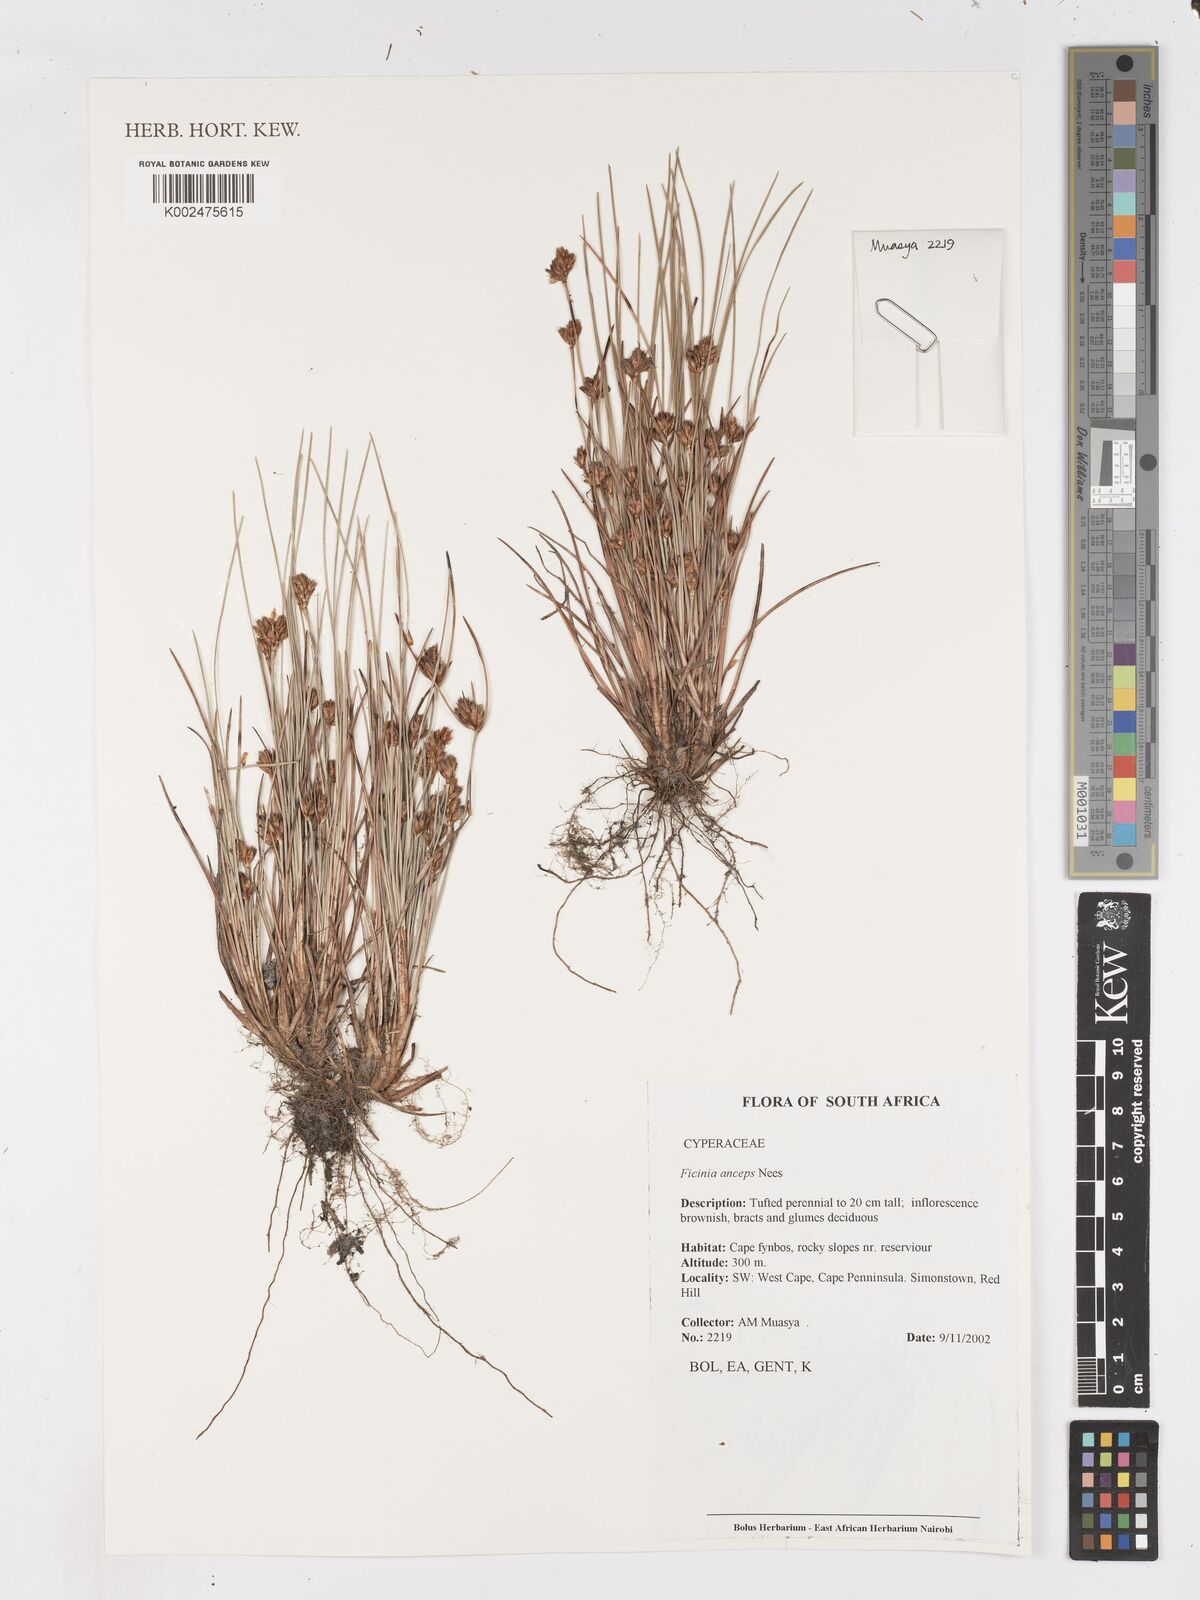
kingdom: Plantae
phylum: Tracheophyta
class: Liliopsida
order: Poales
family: Cyperaceae
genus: Ficinia
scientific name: Ficinia anceps
